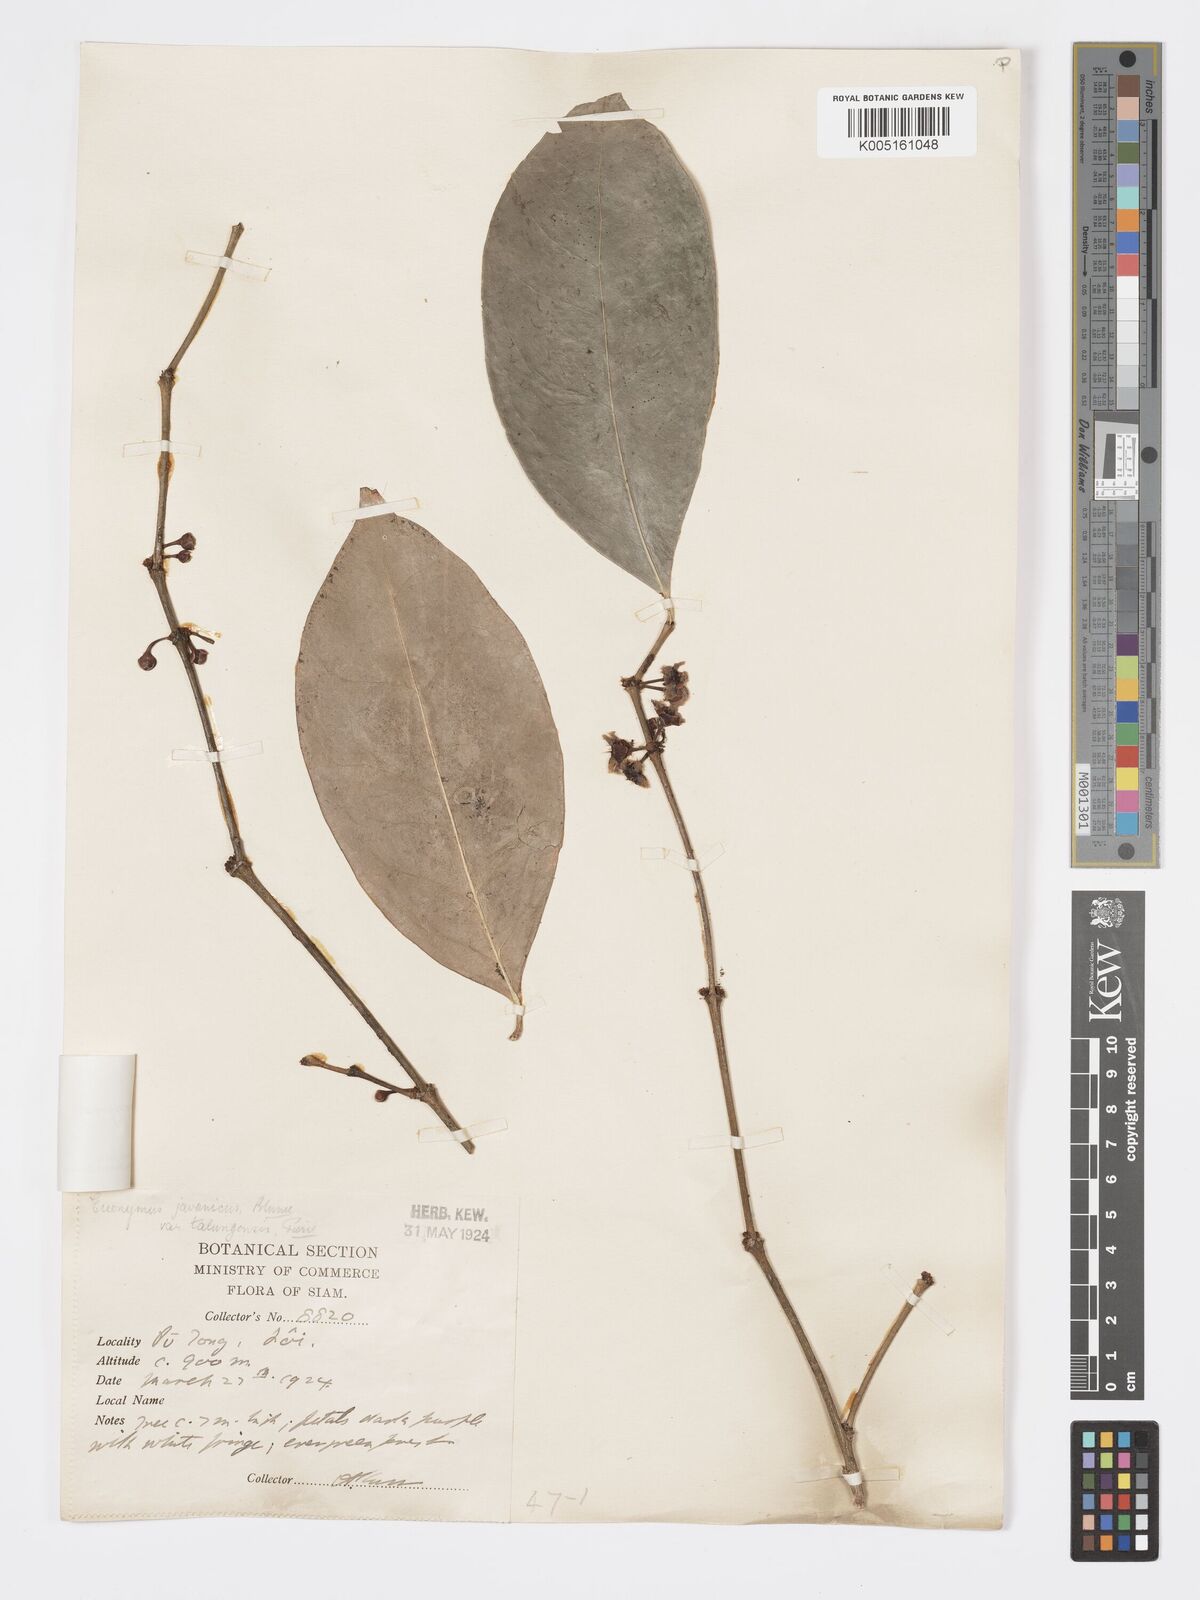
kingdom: Plantae
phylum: Tracheophyta
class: Magnoliopsida
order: Celastrales
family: Celastraceae
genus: Euonymus
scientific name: Euonymus indicus
